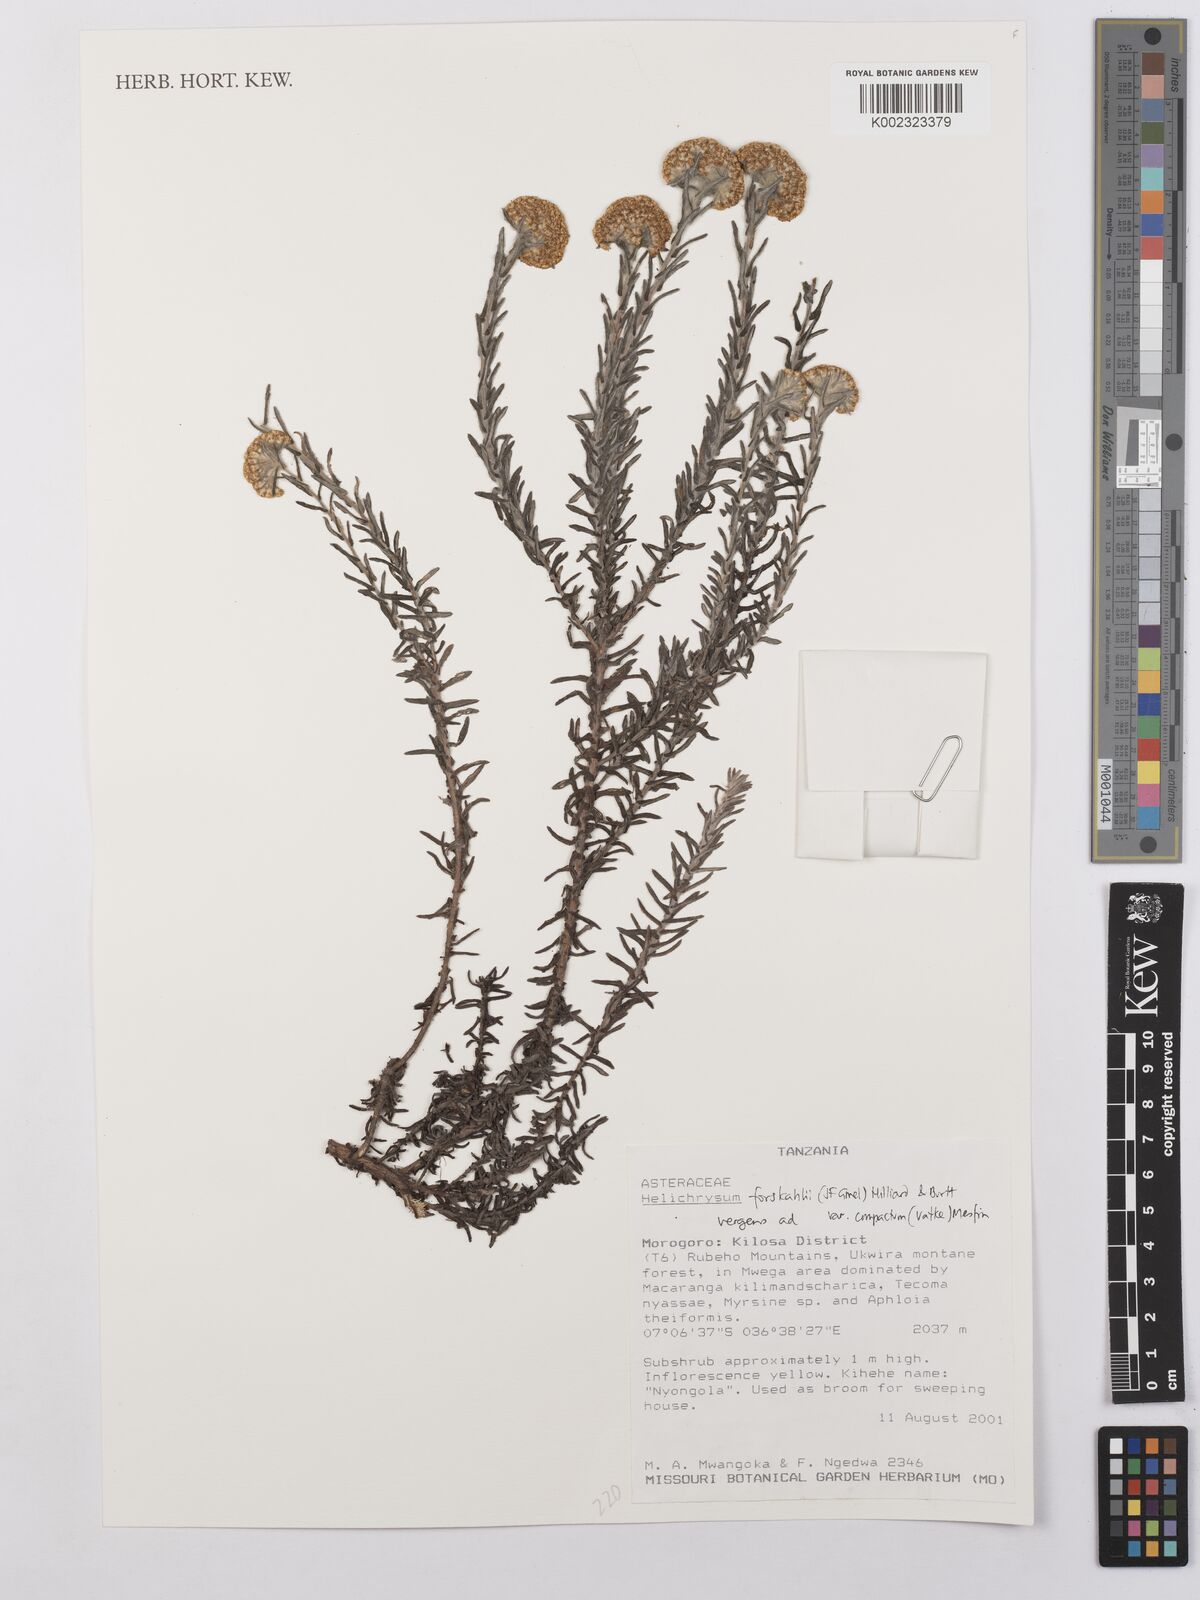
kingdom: Plantae
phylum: Tracheophyta
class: Magnoliopsida
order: Asterales
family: Asteraceae
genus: Helichrysum
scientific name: Helichrysum forskahlii
